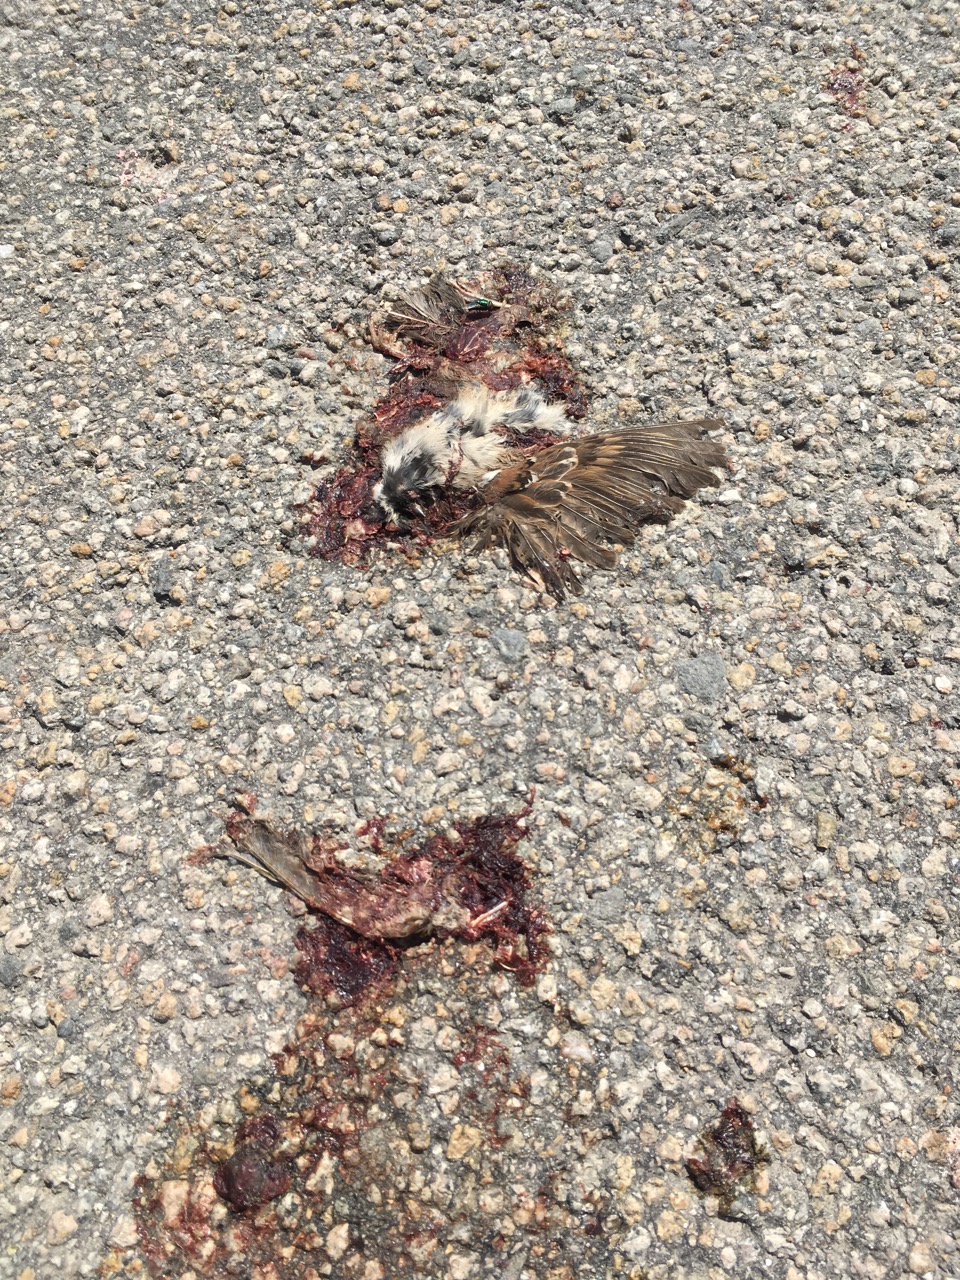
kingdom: Animalia
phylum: Chordata
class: Aves
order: Passeriformes
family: Passeridae
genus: Passer
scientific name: Passer montanus
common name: Eurasian tree sparrow
